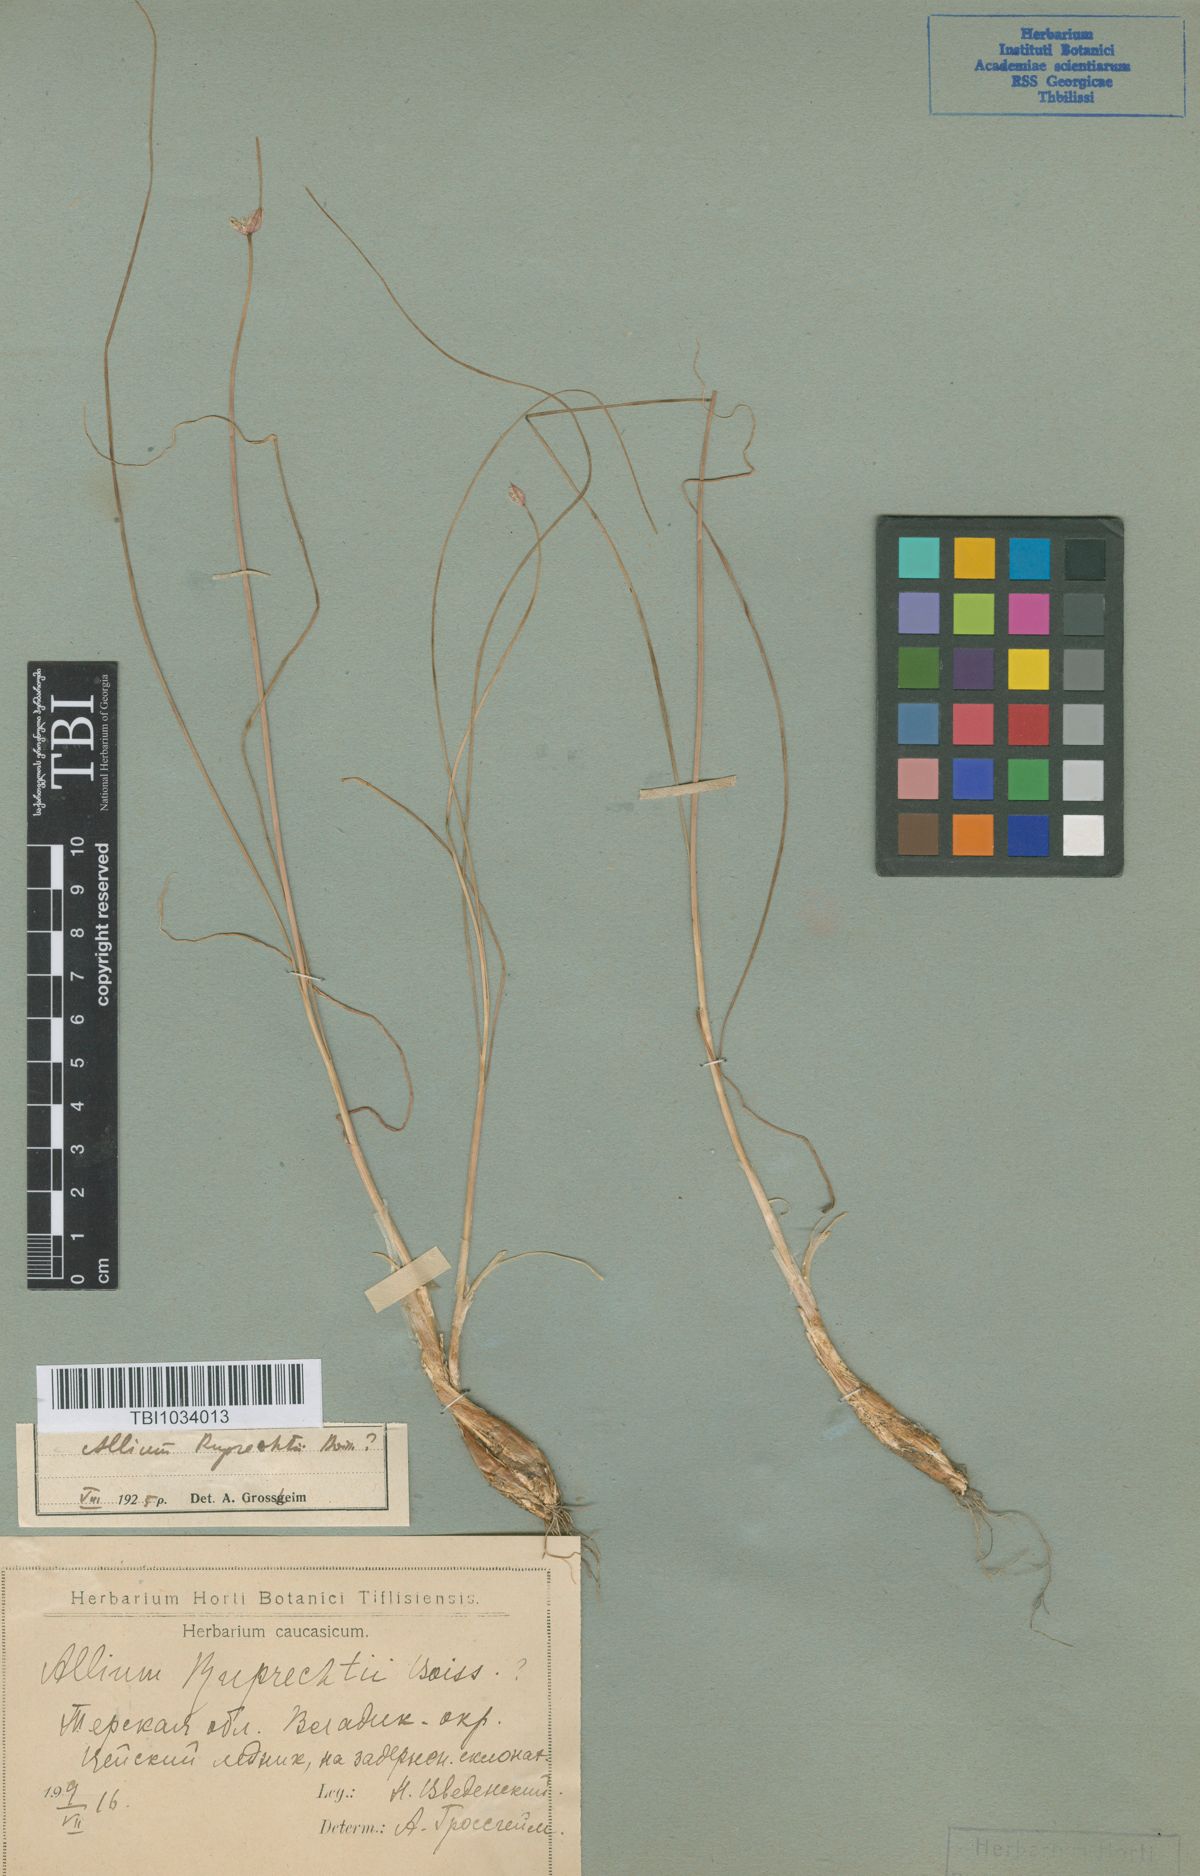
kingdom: Plantae
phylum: Tracheophyta
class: Liliopsida
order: Asparagales
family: Amaryllidaceae
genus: Allium
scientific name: Allium saxatile
